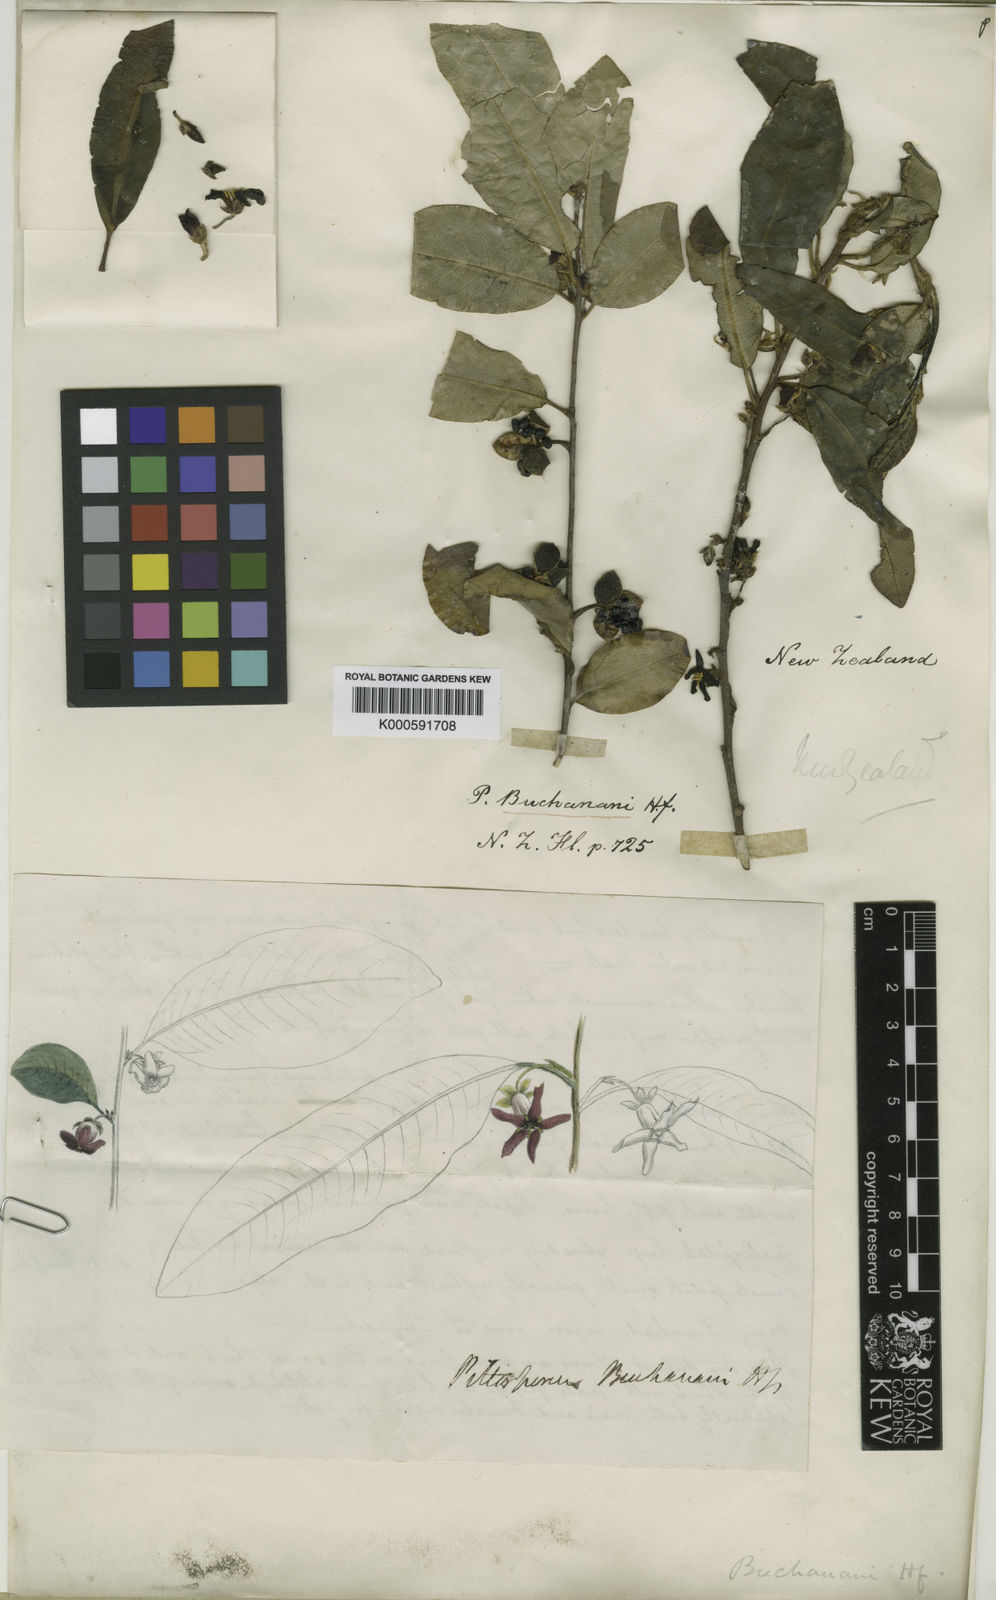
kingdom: Plantae
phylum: Tracheophyta
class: Magnoliopsida
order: Apiales
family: Pittosporaceae
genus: Pittosporum
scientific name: Pittosporum colensoi
